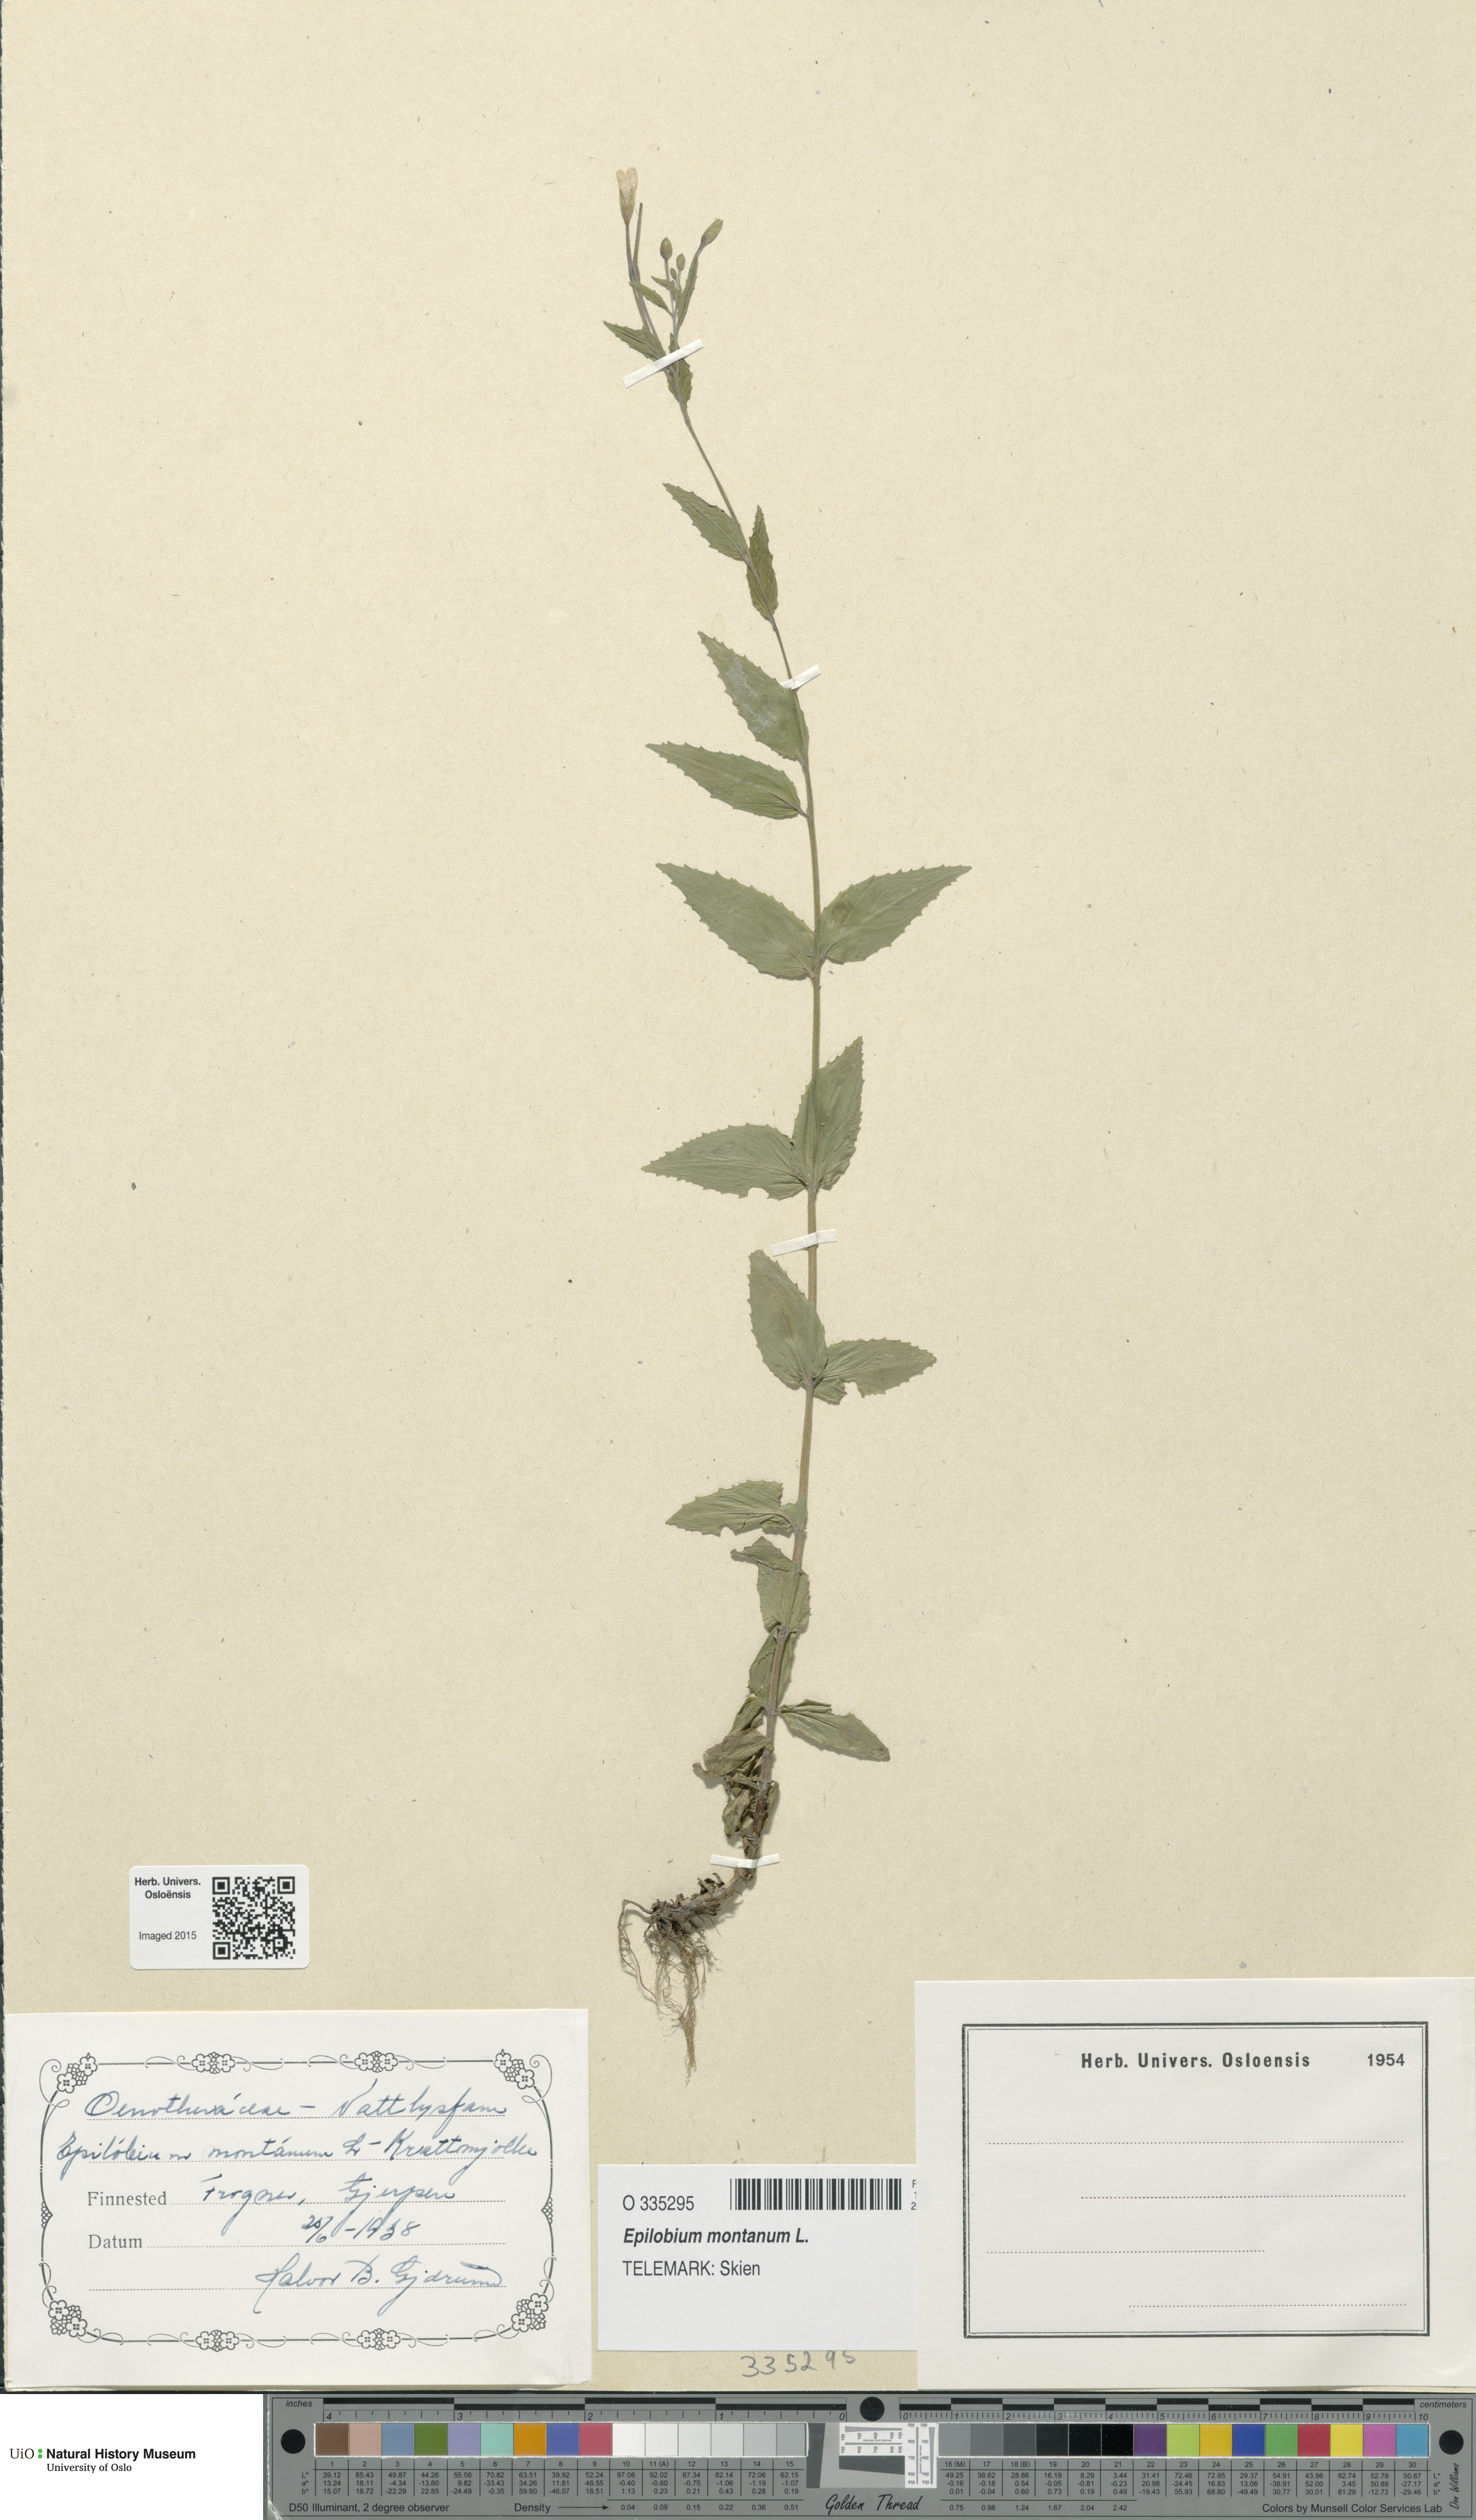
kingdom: Plantae
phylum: Tracheophyta
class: Magnoliopsida
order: Myrtales
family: Onagraceae
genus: Epilobium
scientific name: Epilobium montanum
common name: Broad-leaved willowherb
